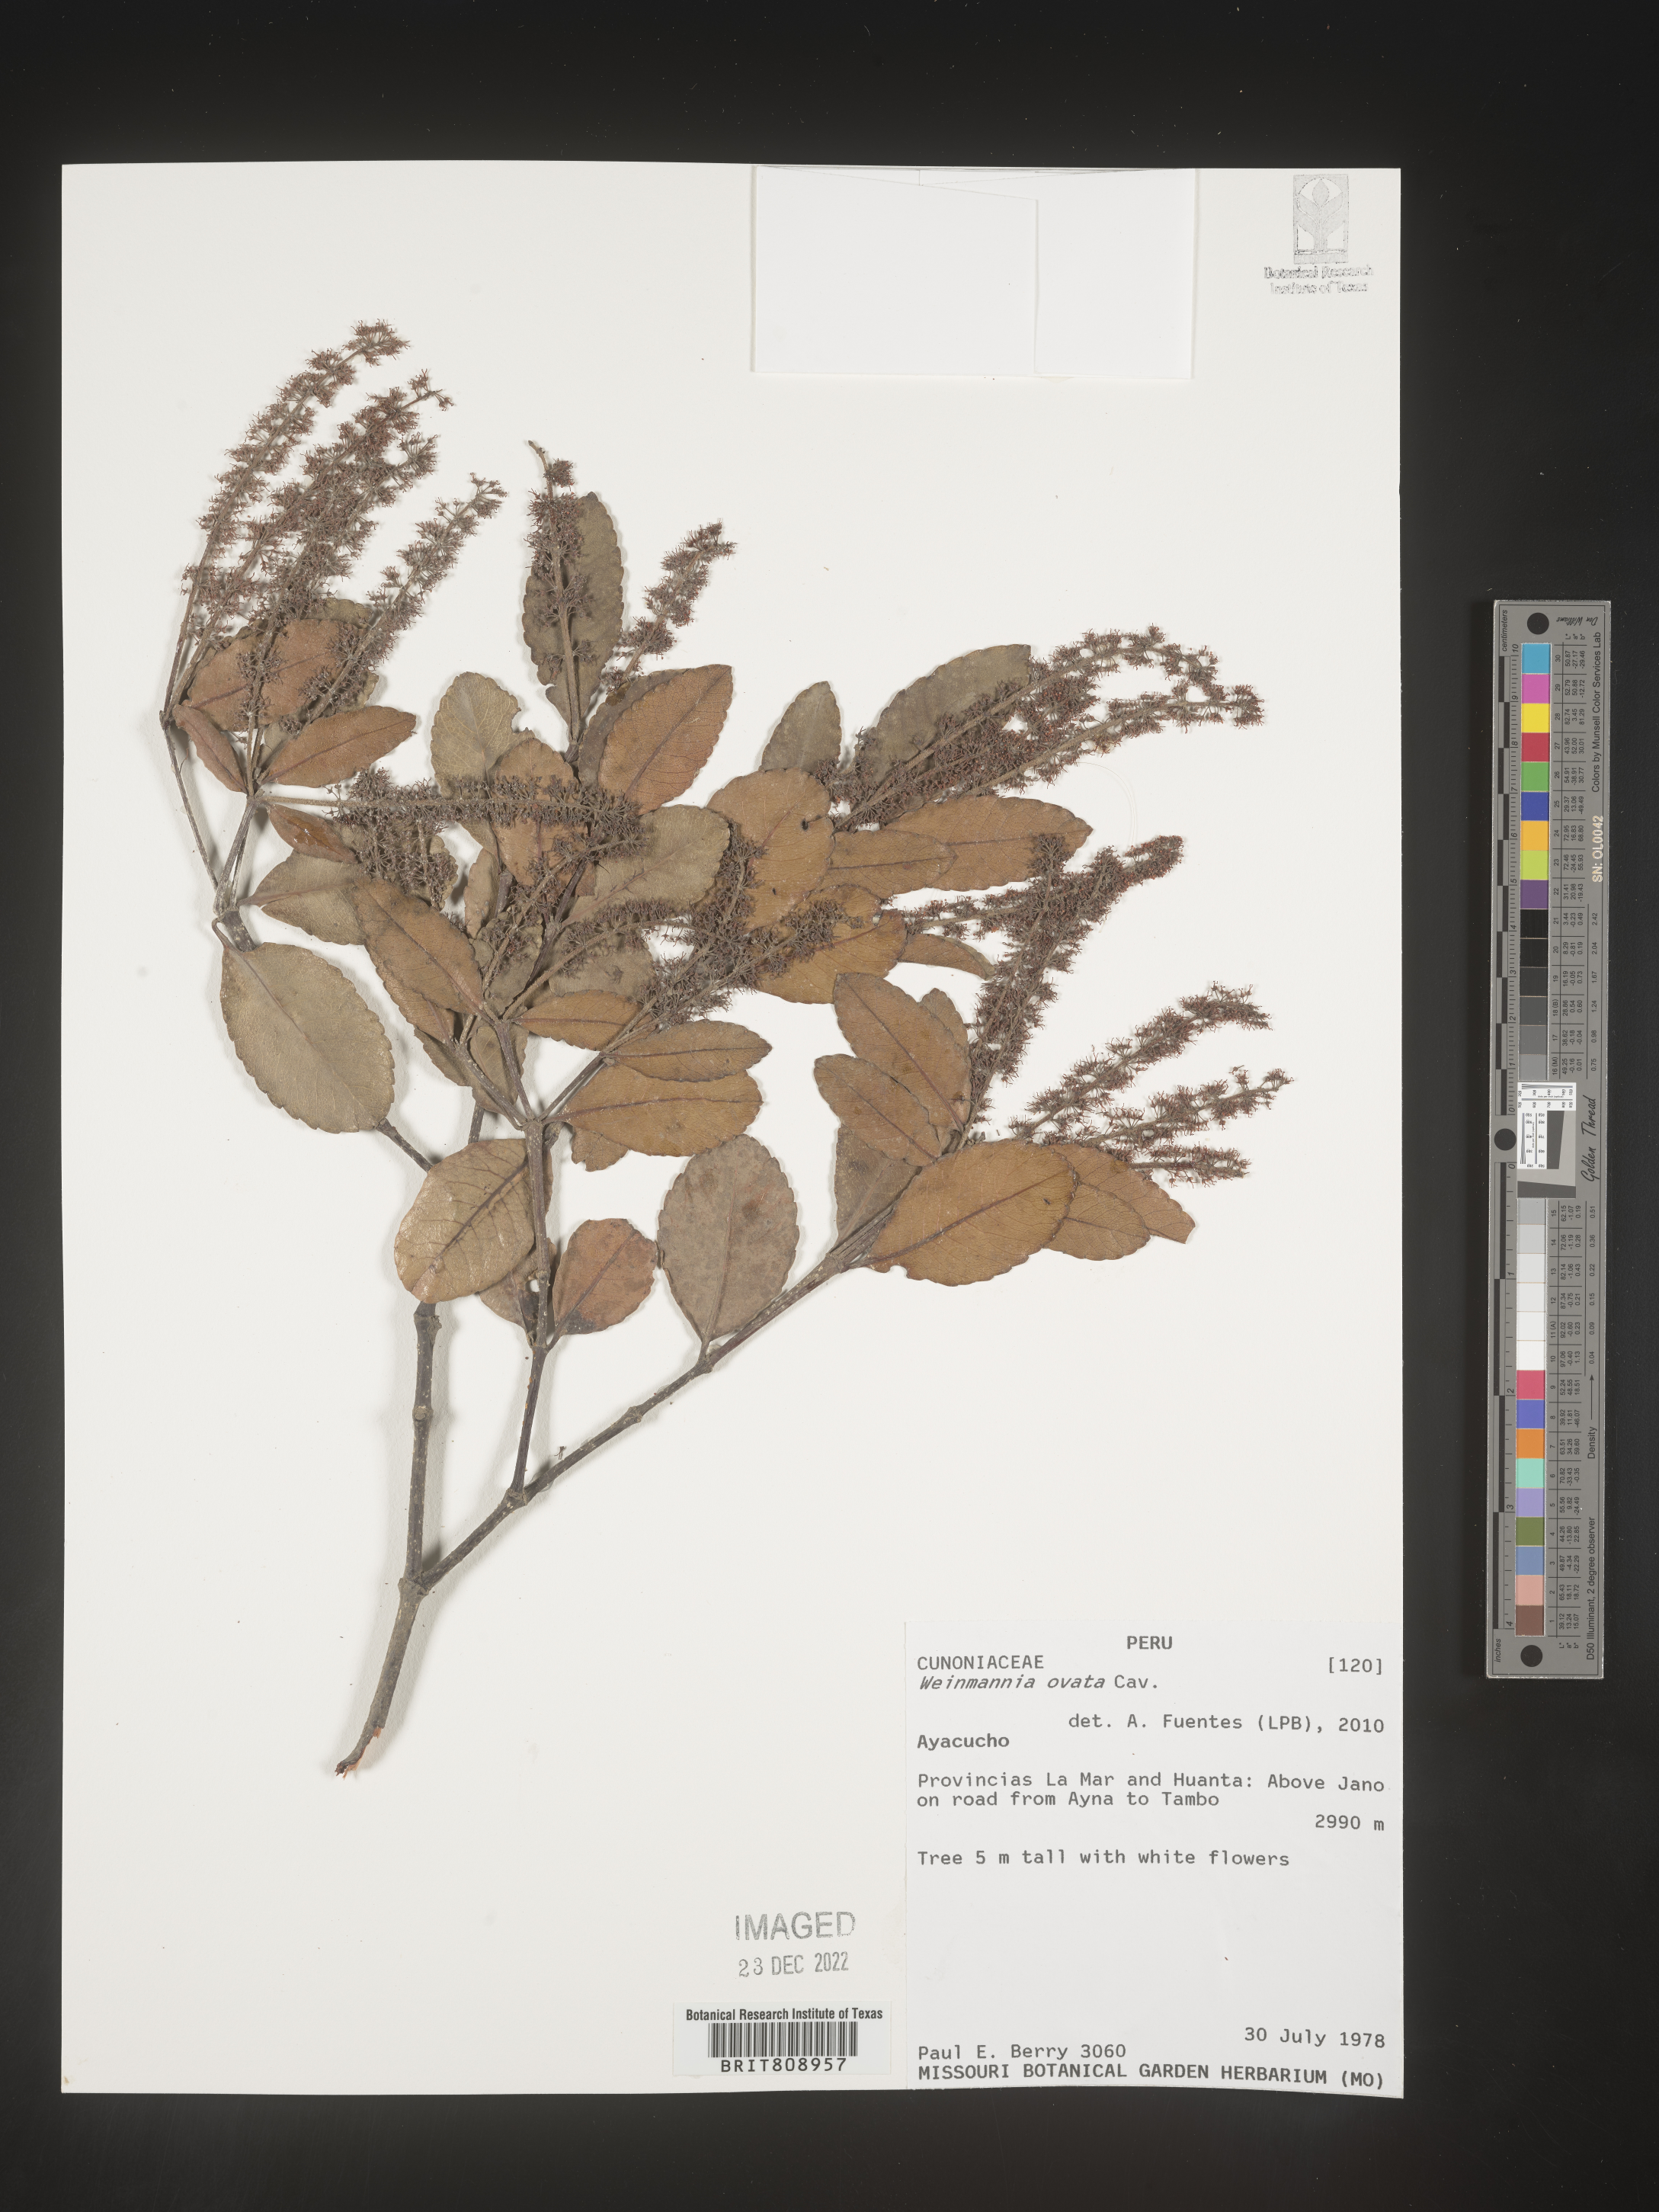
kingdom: Plantae
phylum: Tracheophyta
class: Magnoliopsida
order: Oxalidales
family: Cunoniaceae
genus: Weinmannia
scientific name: Weinmannia
